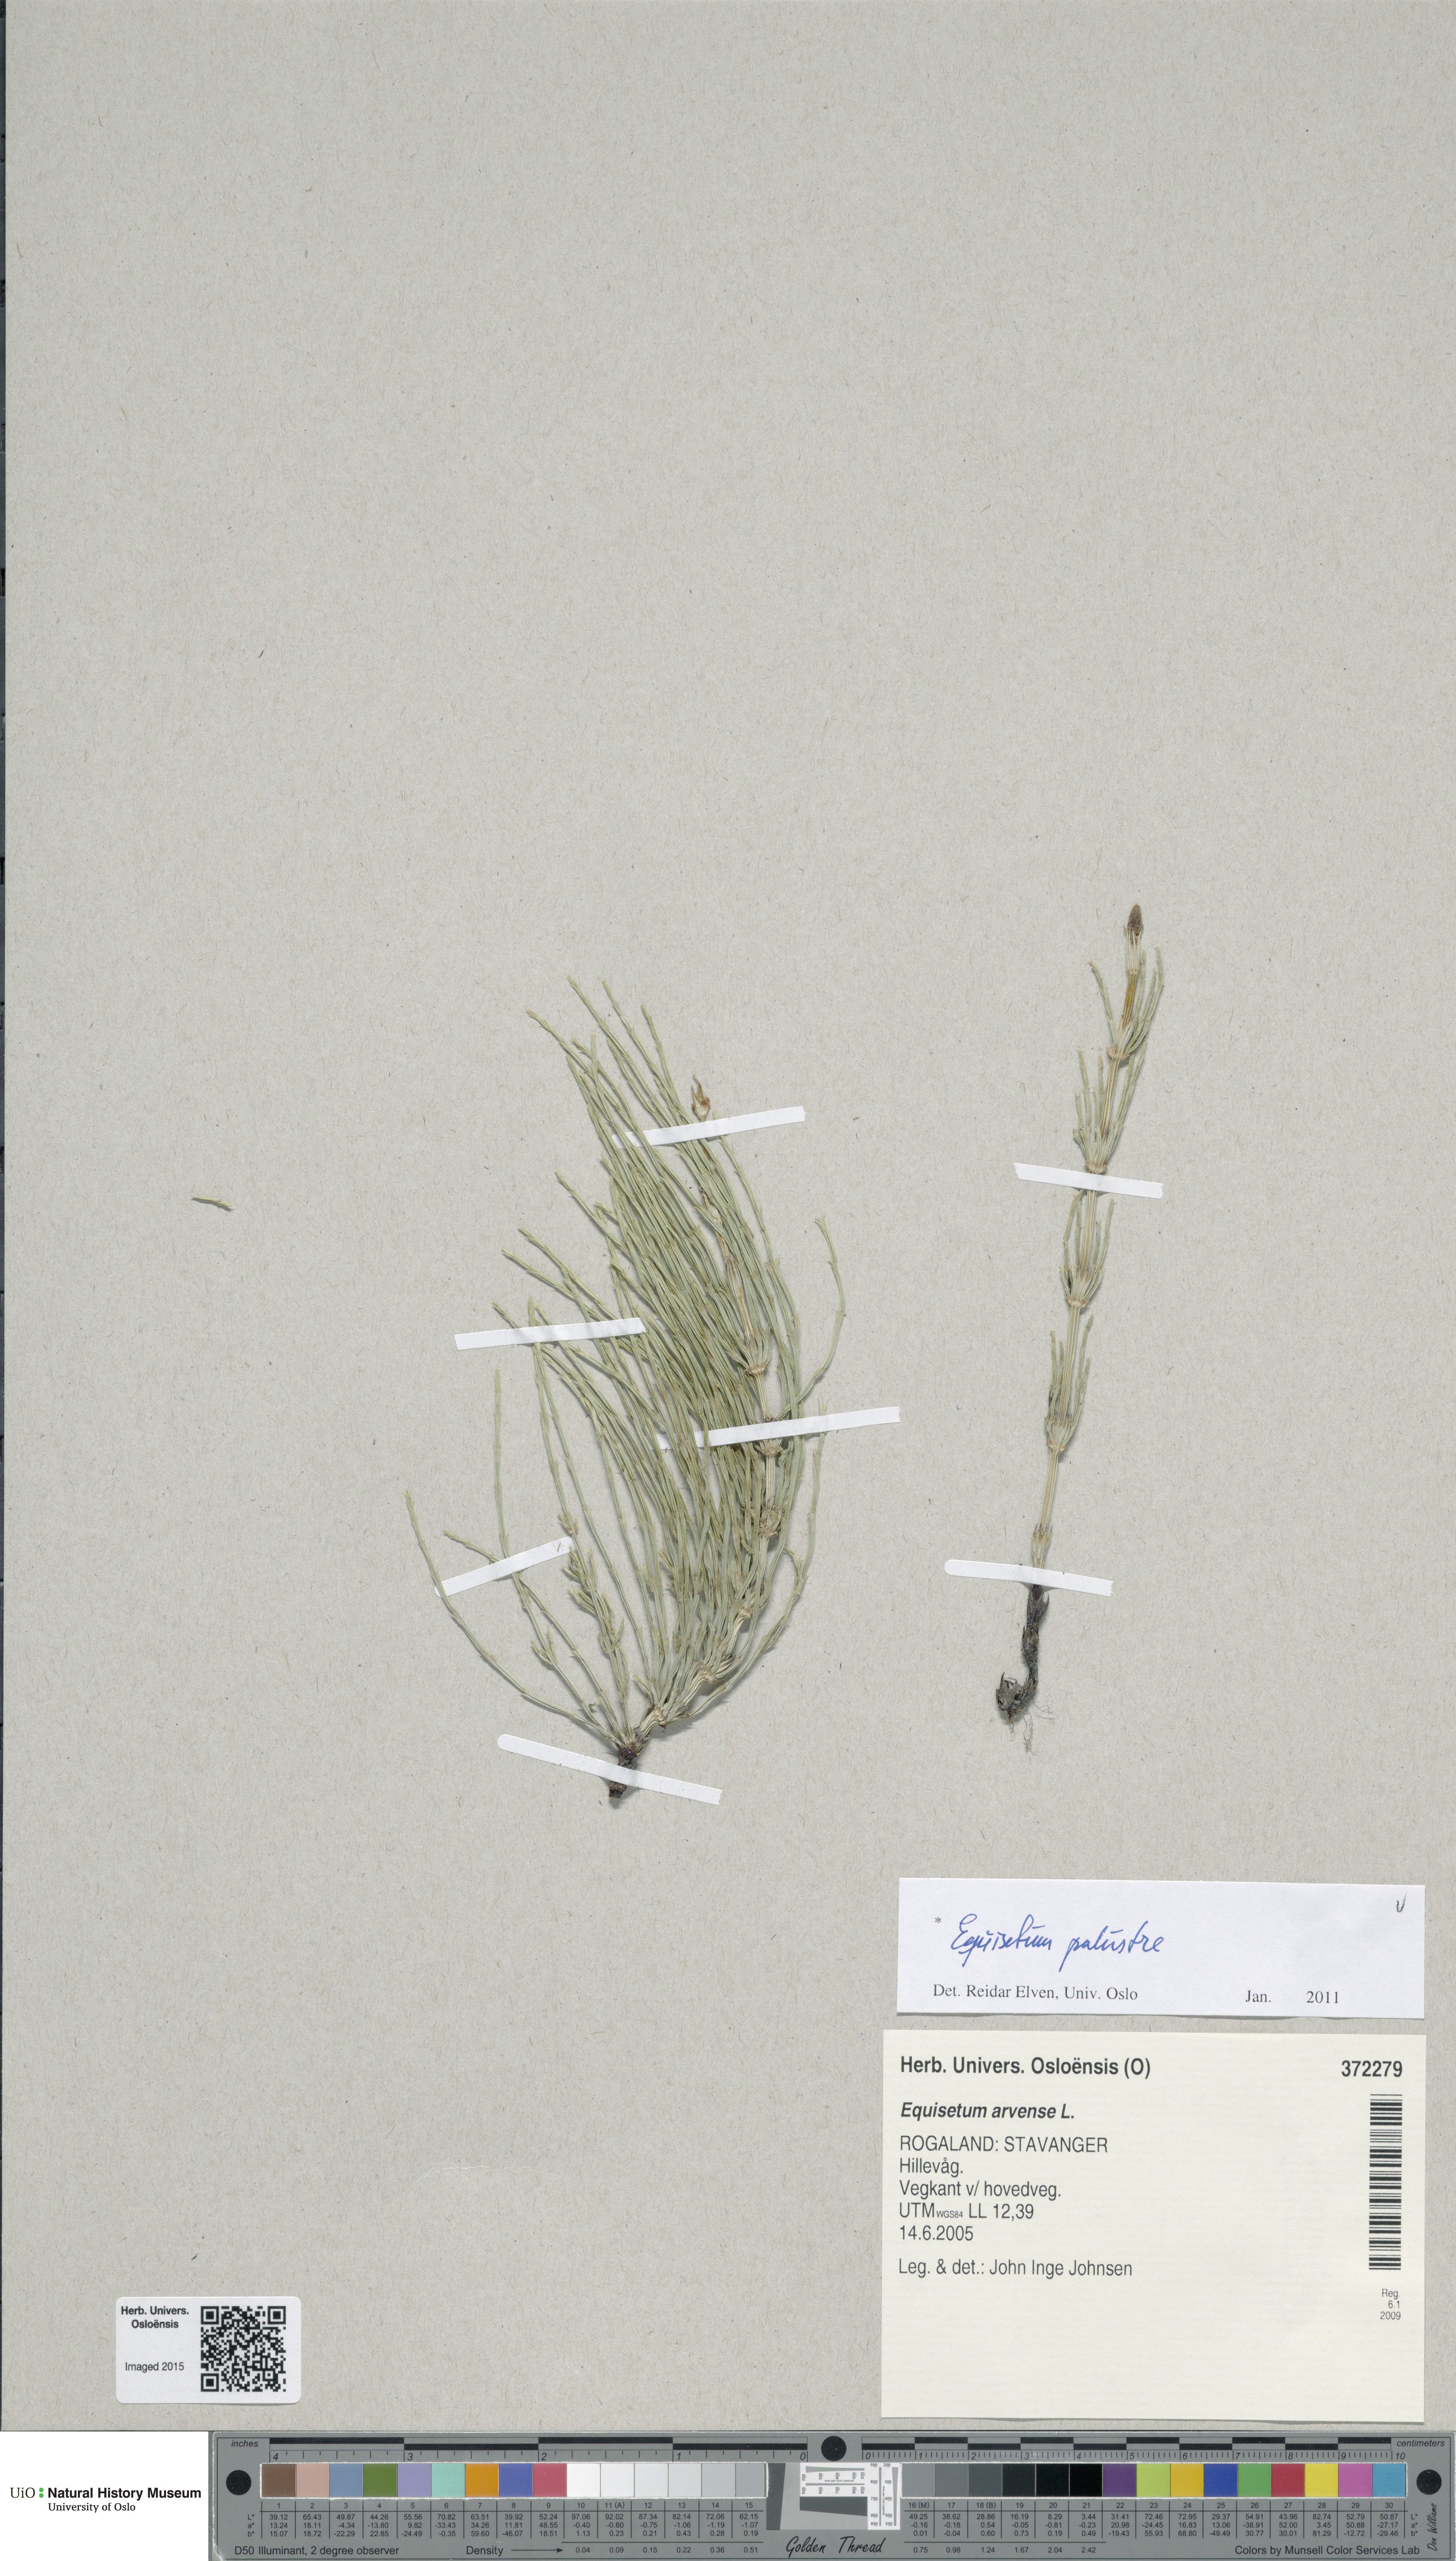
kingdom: Plantae
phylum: Tracheophyta
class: Polypodiopsida
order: Equisetales
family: Equisetaceae
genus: Equisetum
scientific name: Equisetum palustre
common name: Marsh horsetail
